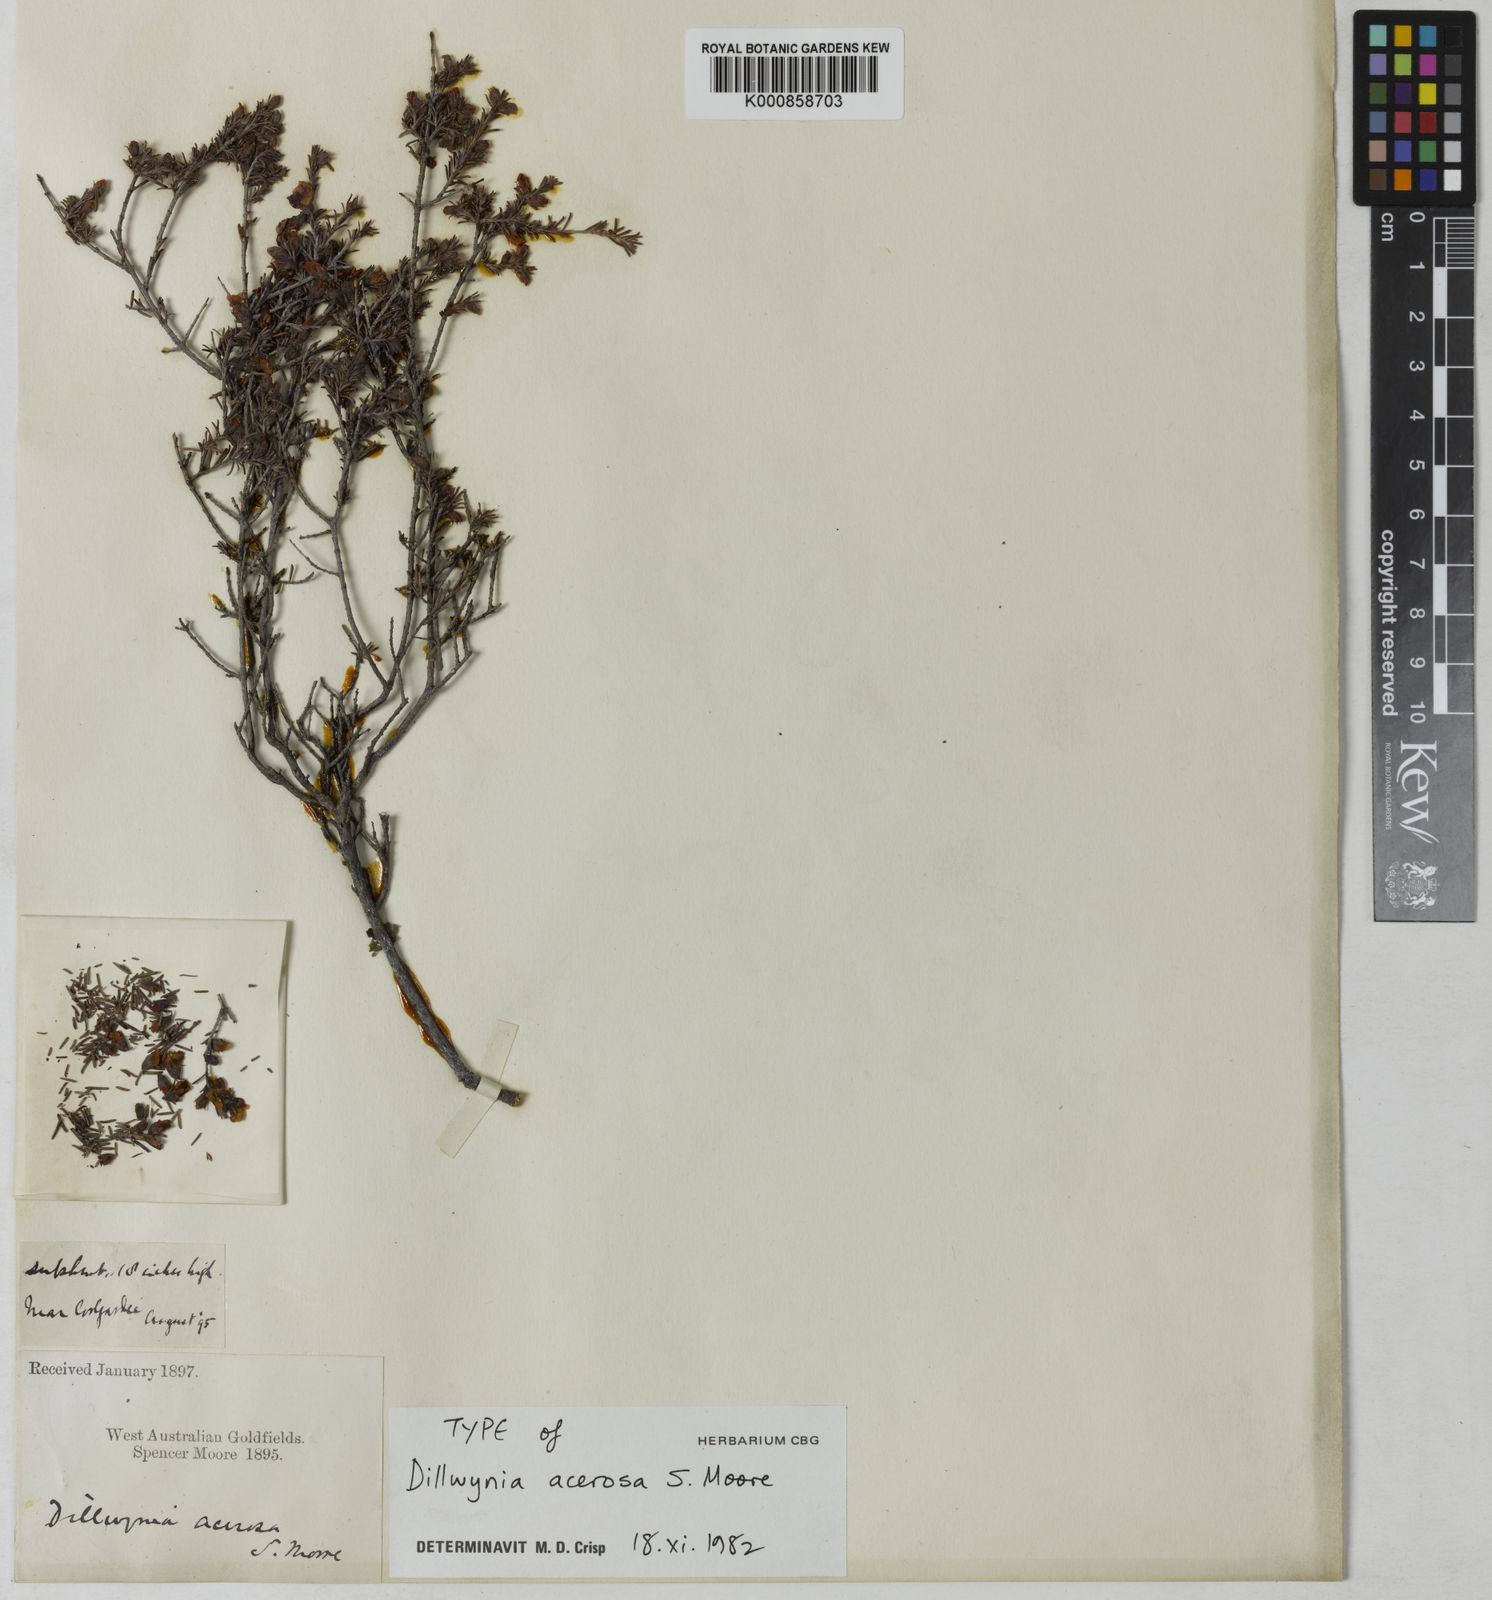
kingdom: Plantae
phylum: Tracheophyta
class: Magnoliopsida
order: Fabales
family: Fabaceae
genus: Dillwynia
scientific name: Dillwynia acerosa
